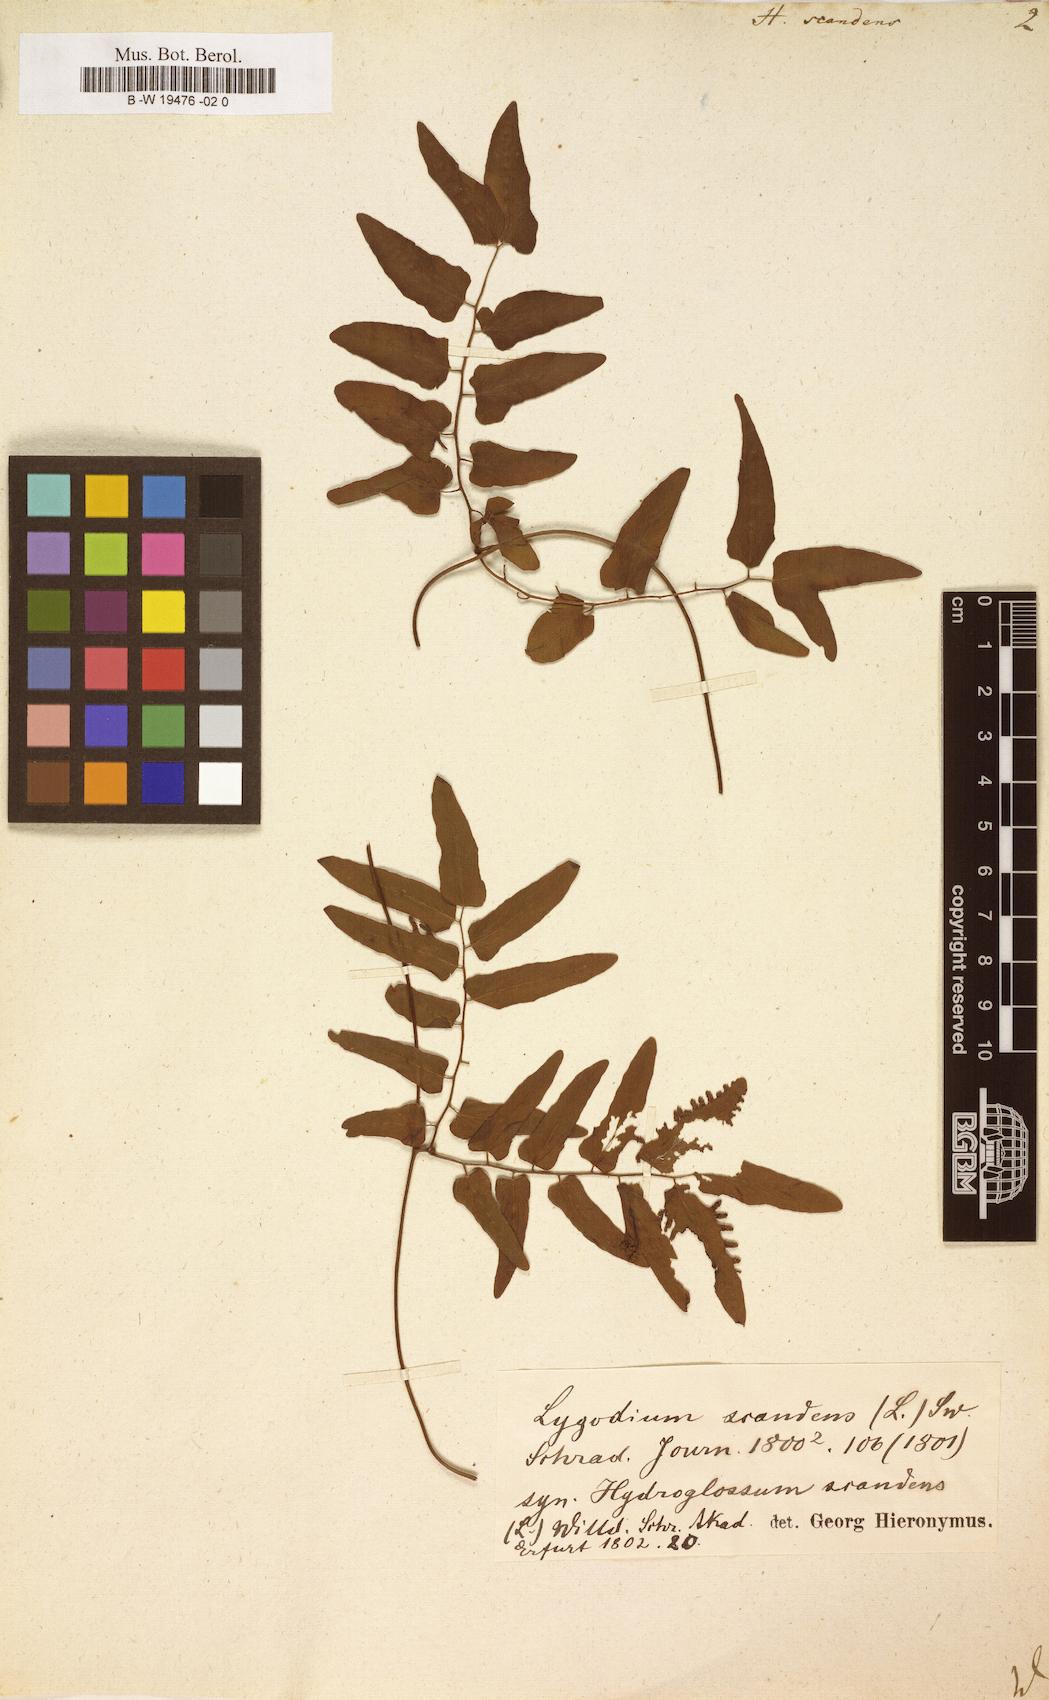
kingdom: Plantae
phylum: Tracheophyta
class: Polypodiopsida
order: Schizaeales
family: Lygodiaceae
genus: Lygodium
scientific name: Lygodium
